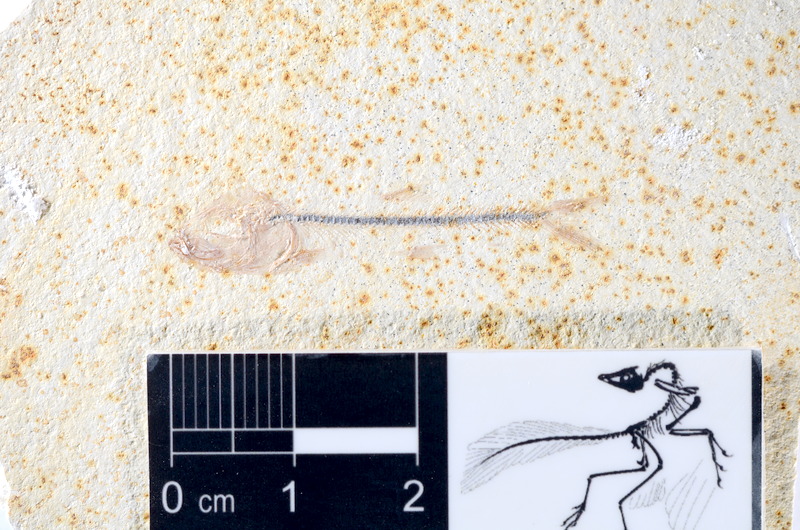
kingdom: Animalia
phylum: Chordata
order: Salmoniformes
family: Orthogonikleithridae
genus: Orthogonikleithrus
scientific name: Orthogonikleithrus hoelli
